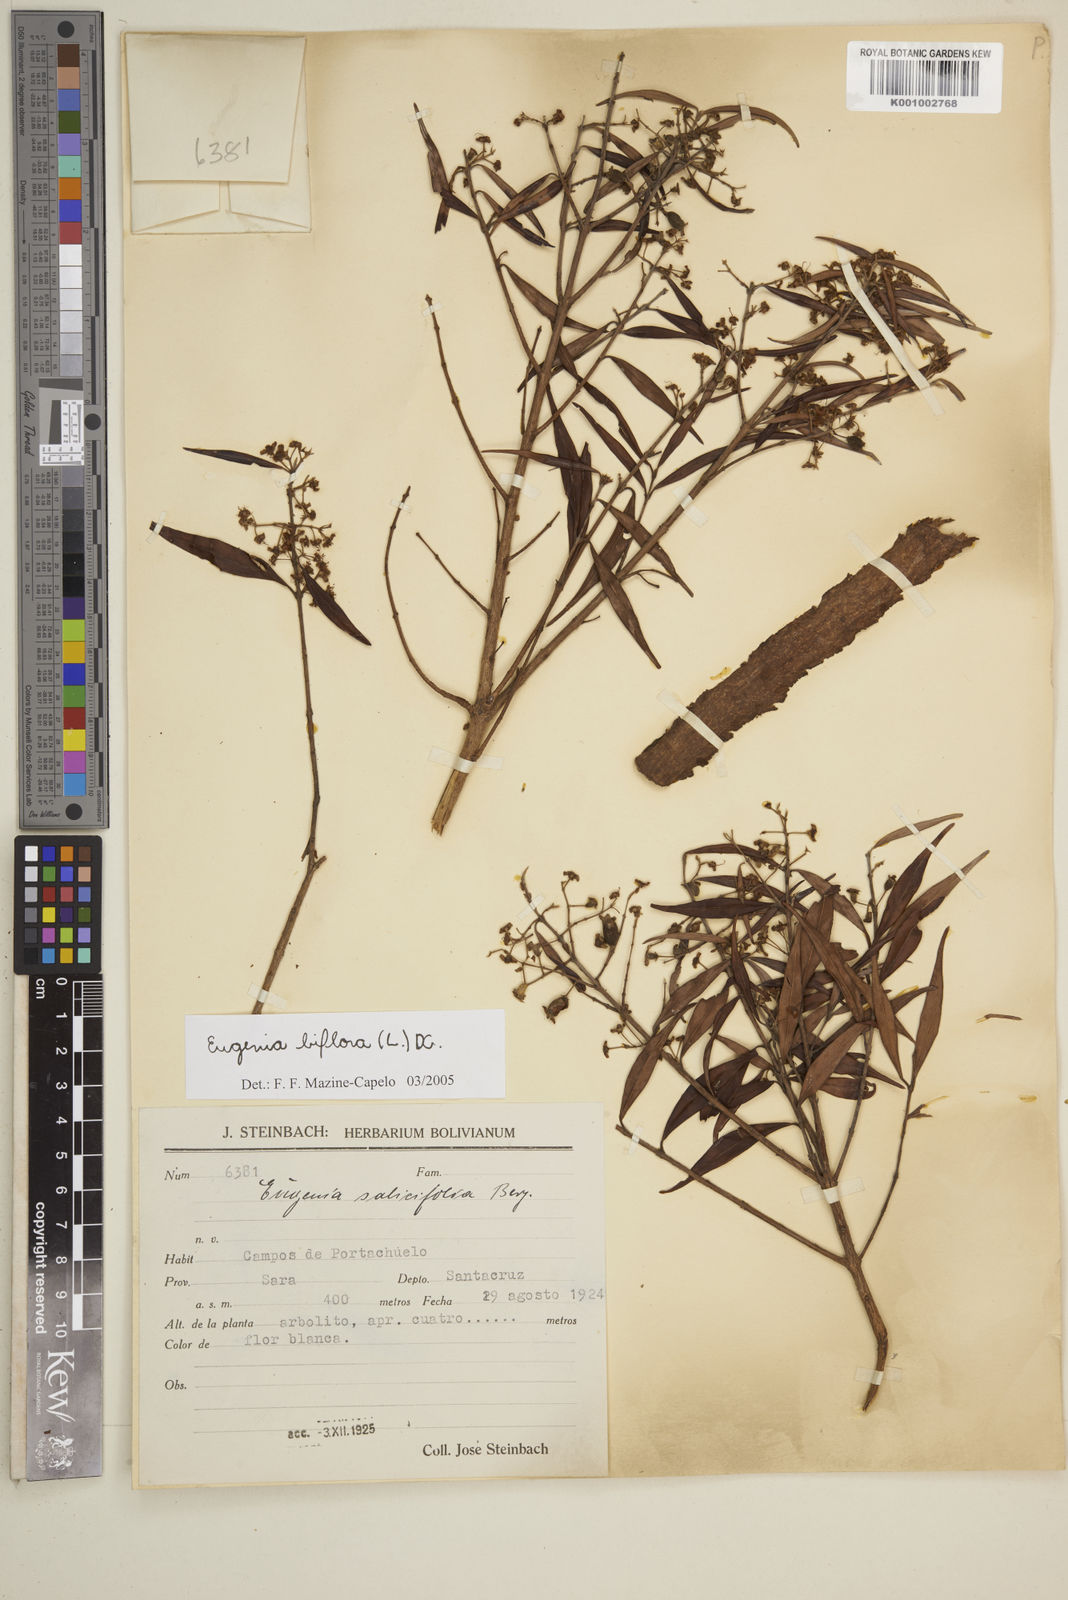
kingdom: Plantae
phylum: Tracheophyta
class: Magnoliopsida
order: Myrtales
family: Myrtaceae
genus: Eugenia
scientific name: Eugenia biflora
